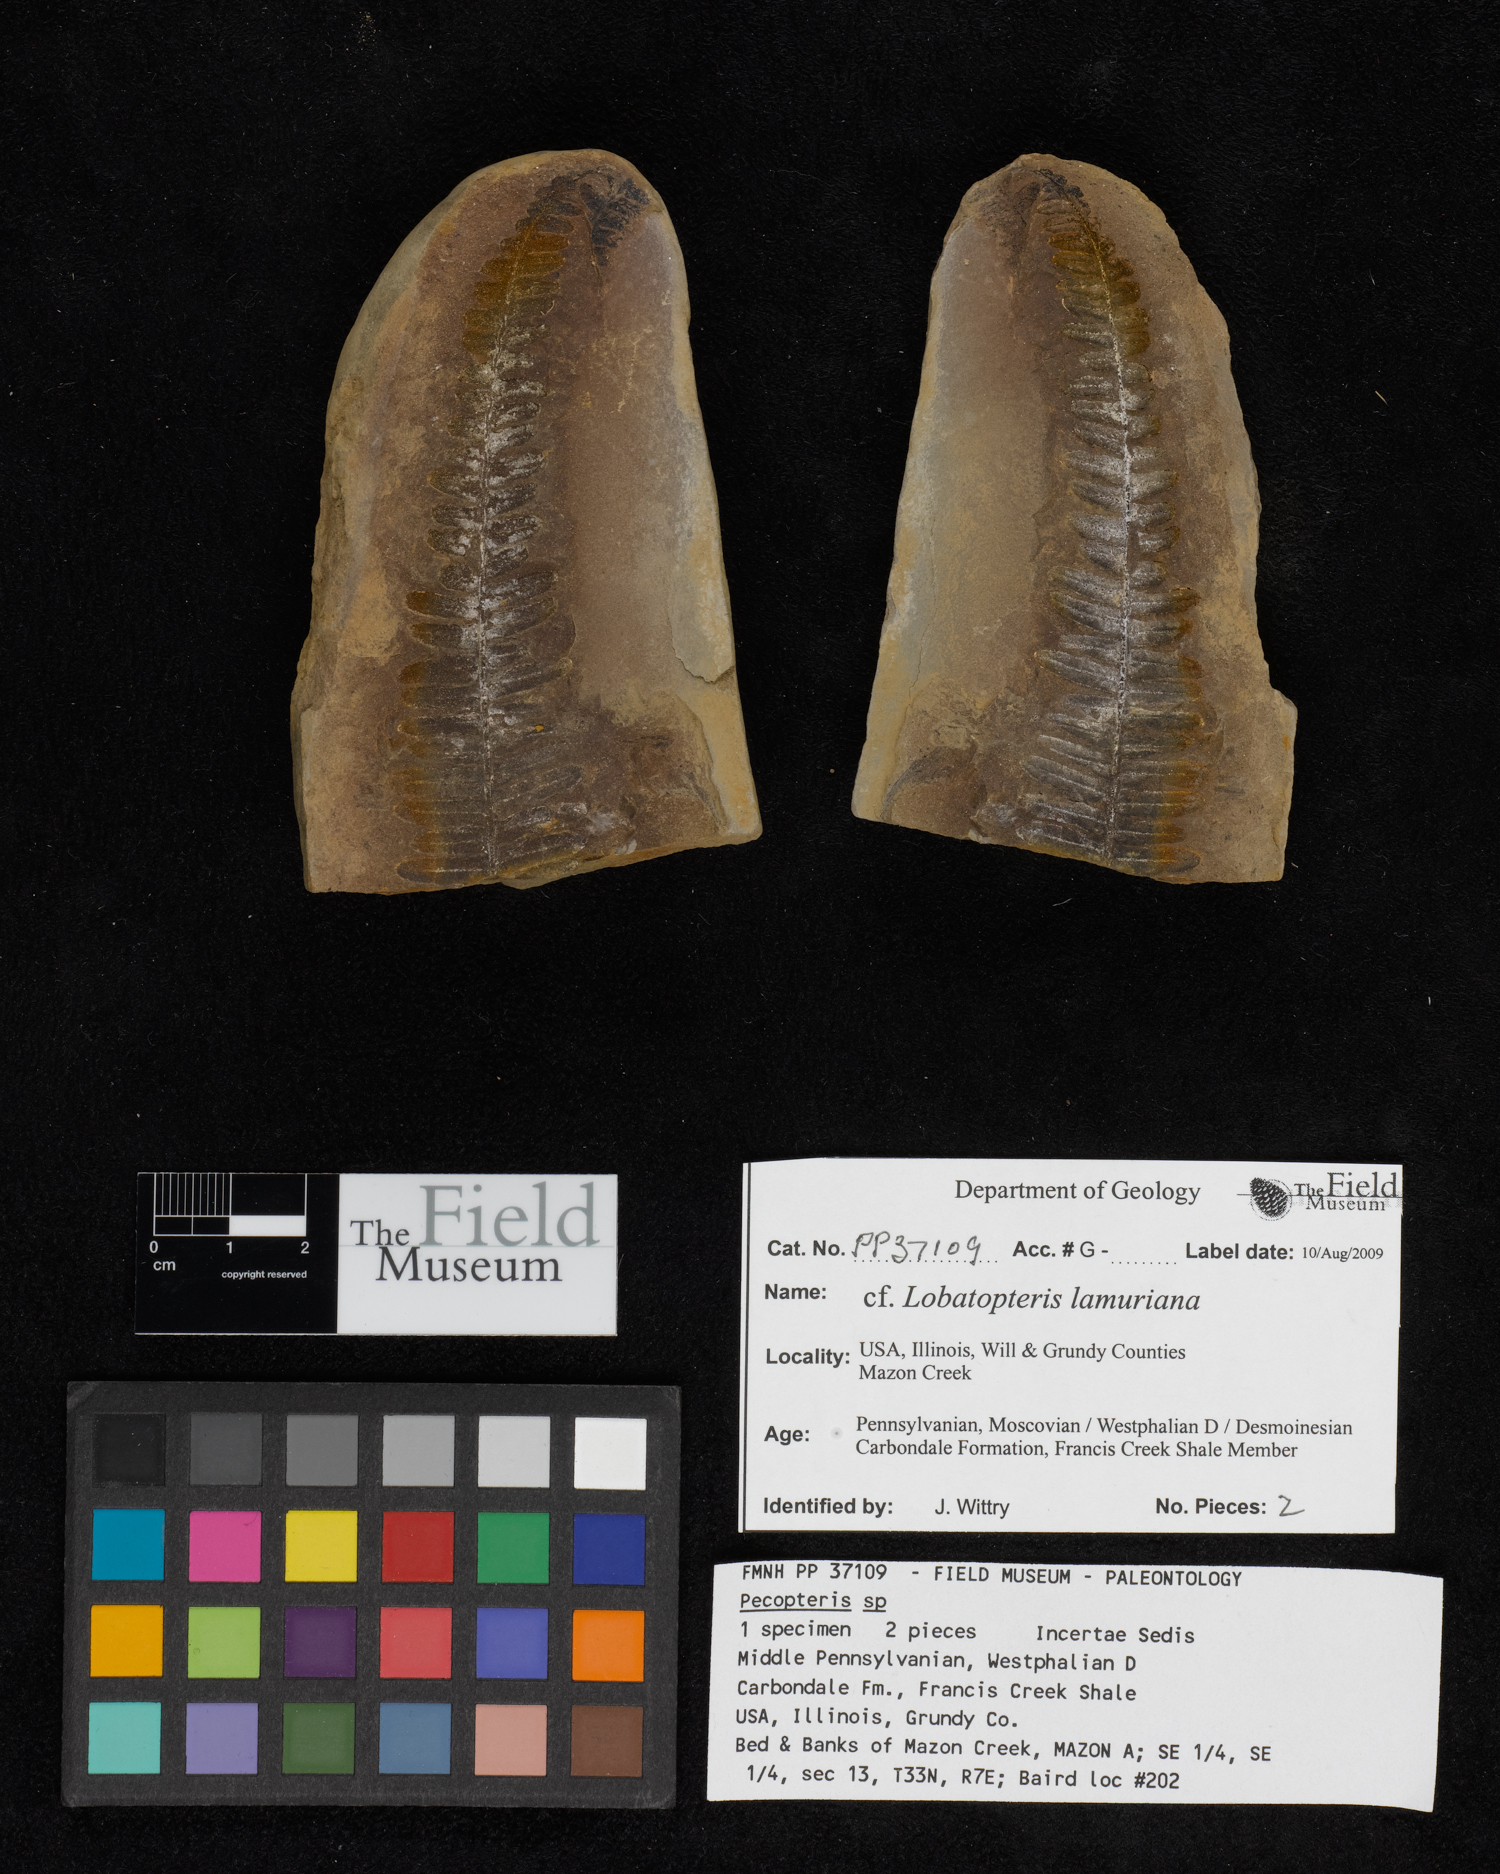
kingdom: Plantae
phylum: Tracheophyta
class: Polypodiopsida
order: Marattiales
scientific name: Marattiales
